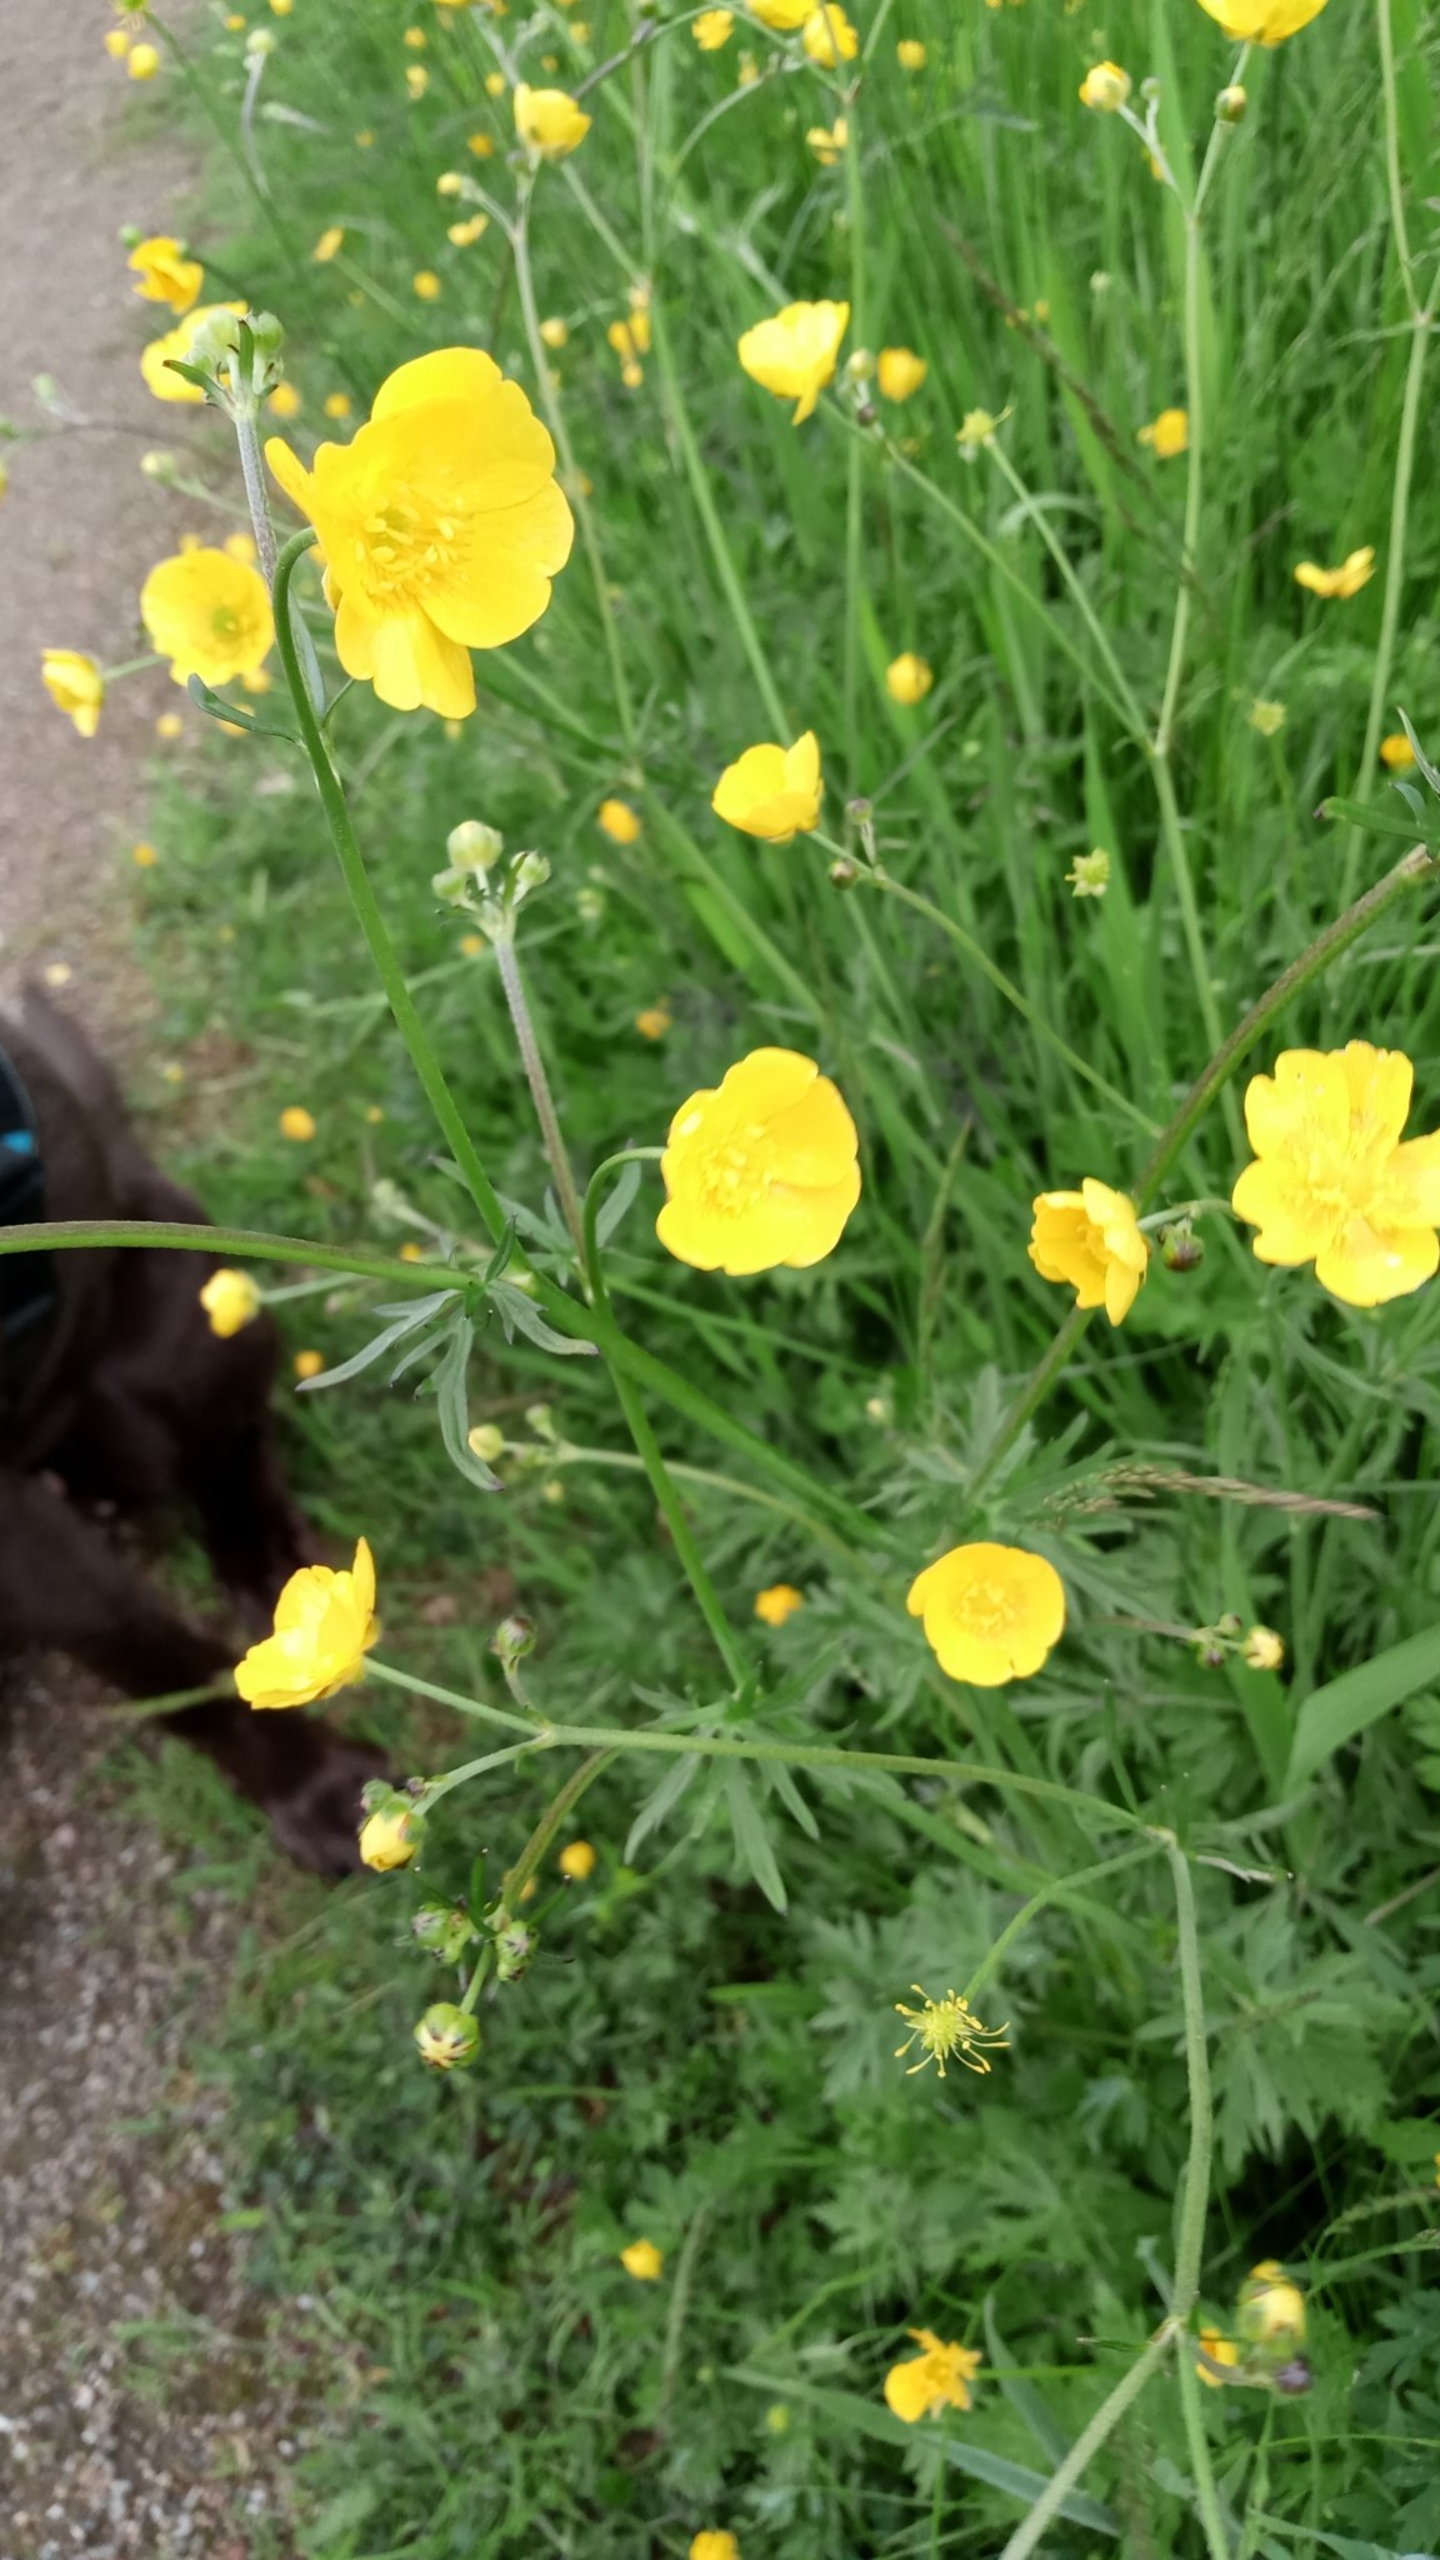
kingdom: Plantae
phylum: Tracheophyta
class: Magnoliopsida
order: Ranunculales
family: Ranunculaceae
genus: Ranunculus
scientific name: Ranunculus acris
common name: Bidende ranunkel
